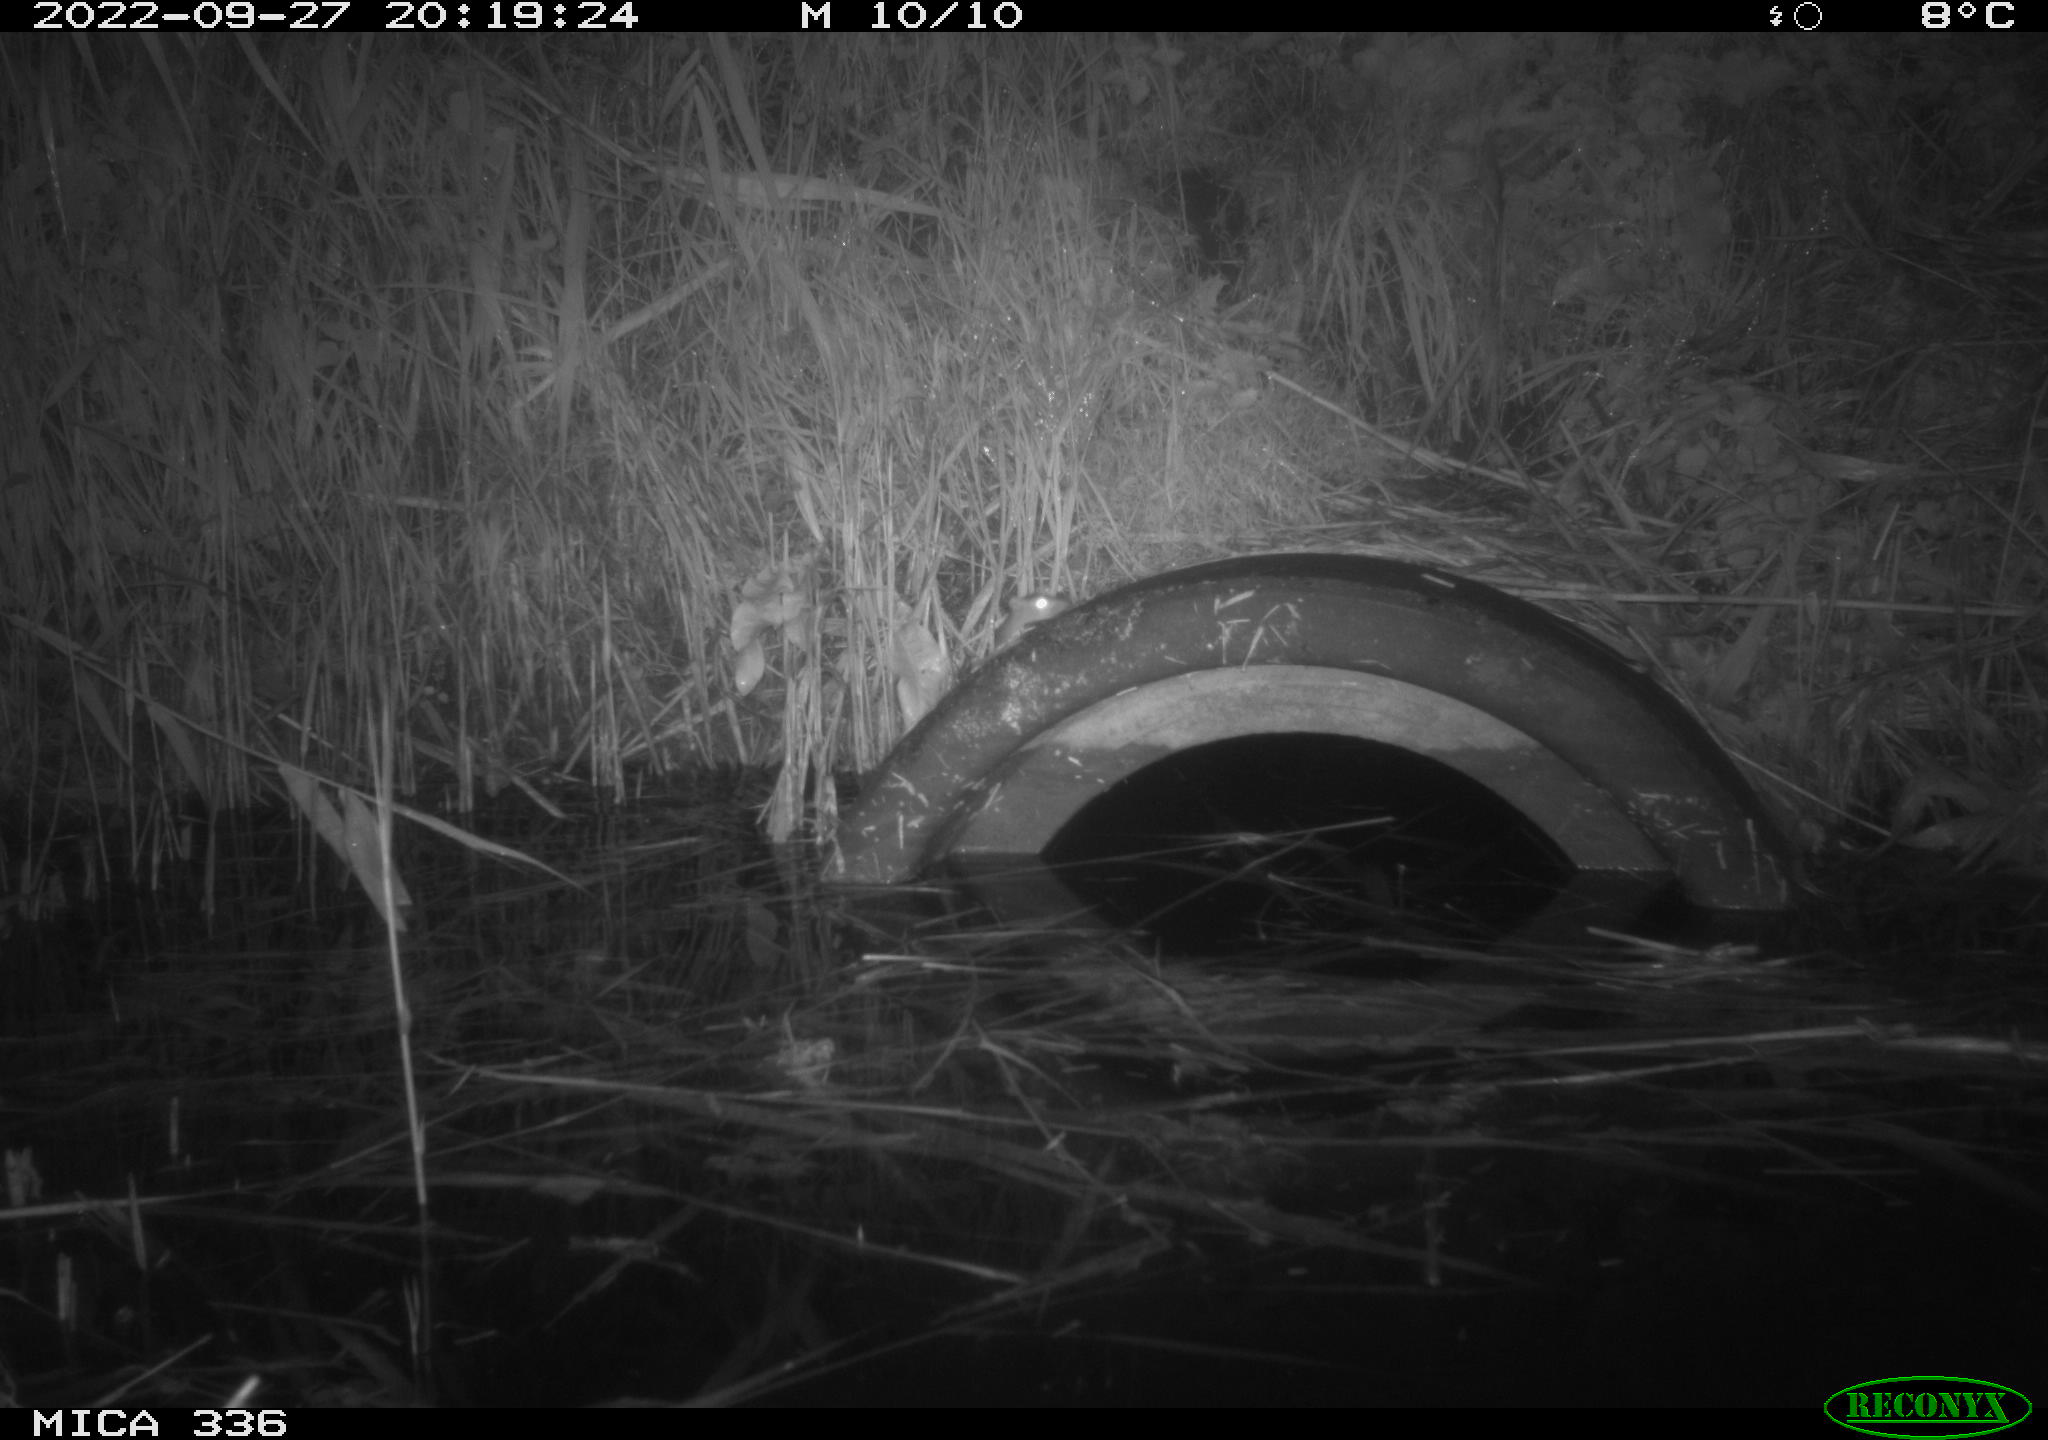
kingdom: Animalia
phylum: Chordata
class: Mammalia
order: Rodentia
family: Muridae
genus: Rattus
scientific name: Rattus norvegicus
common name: Brown rat
